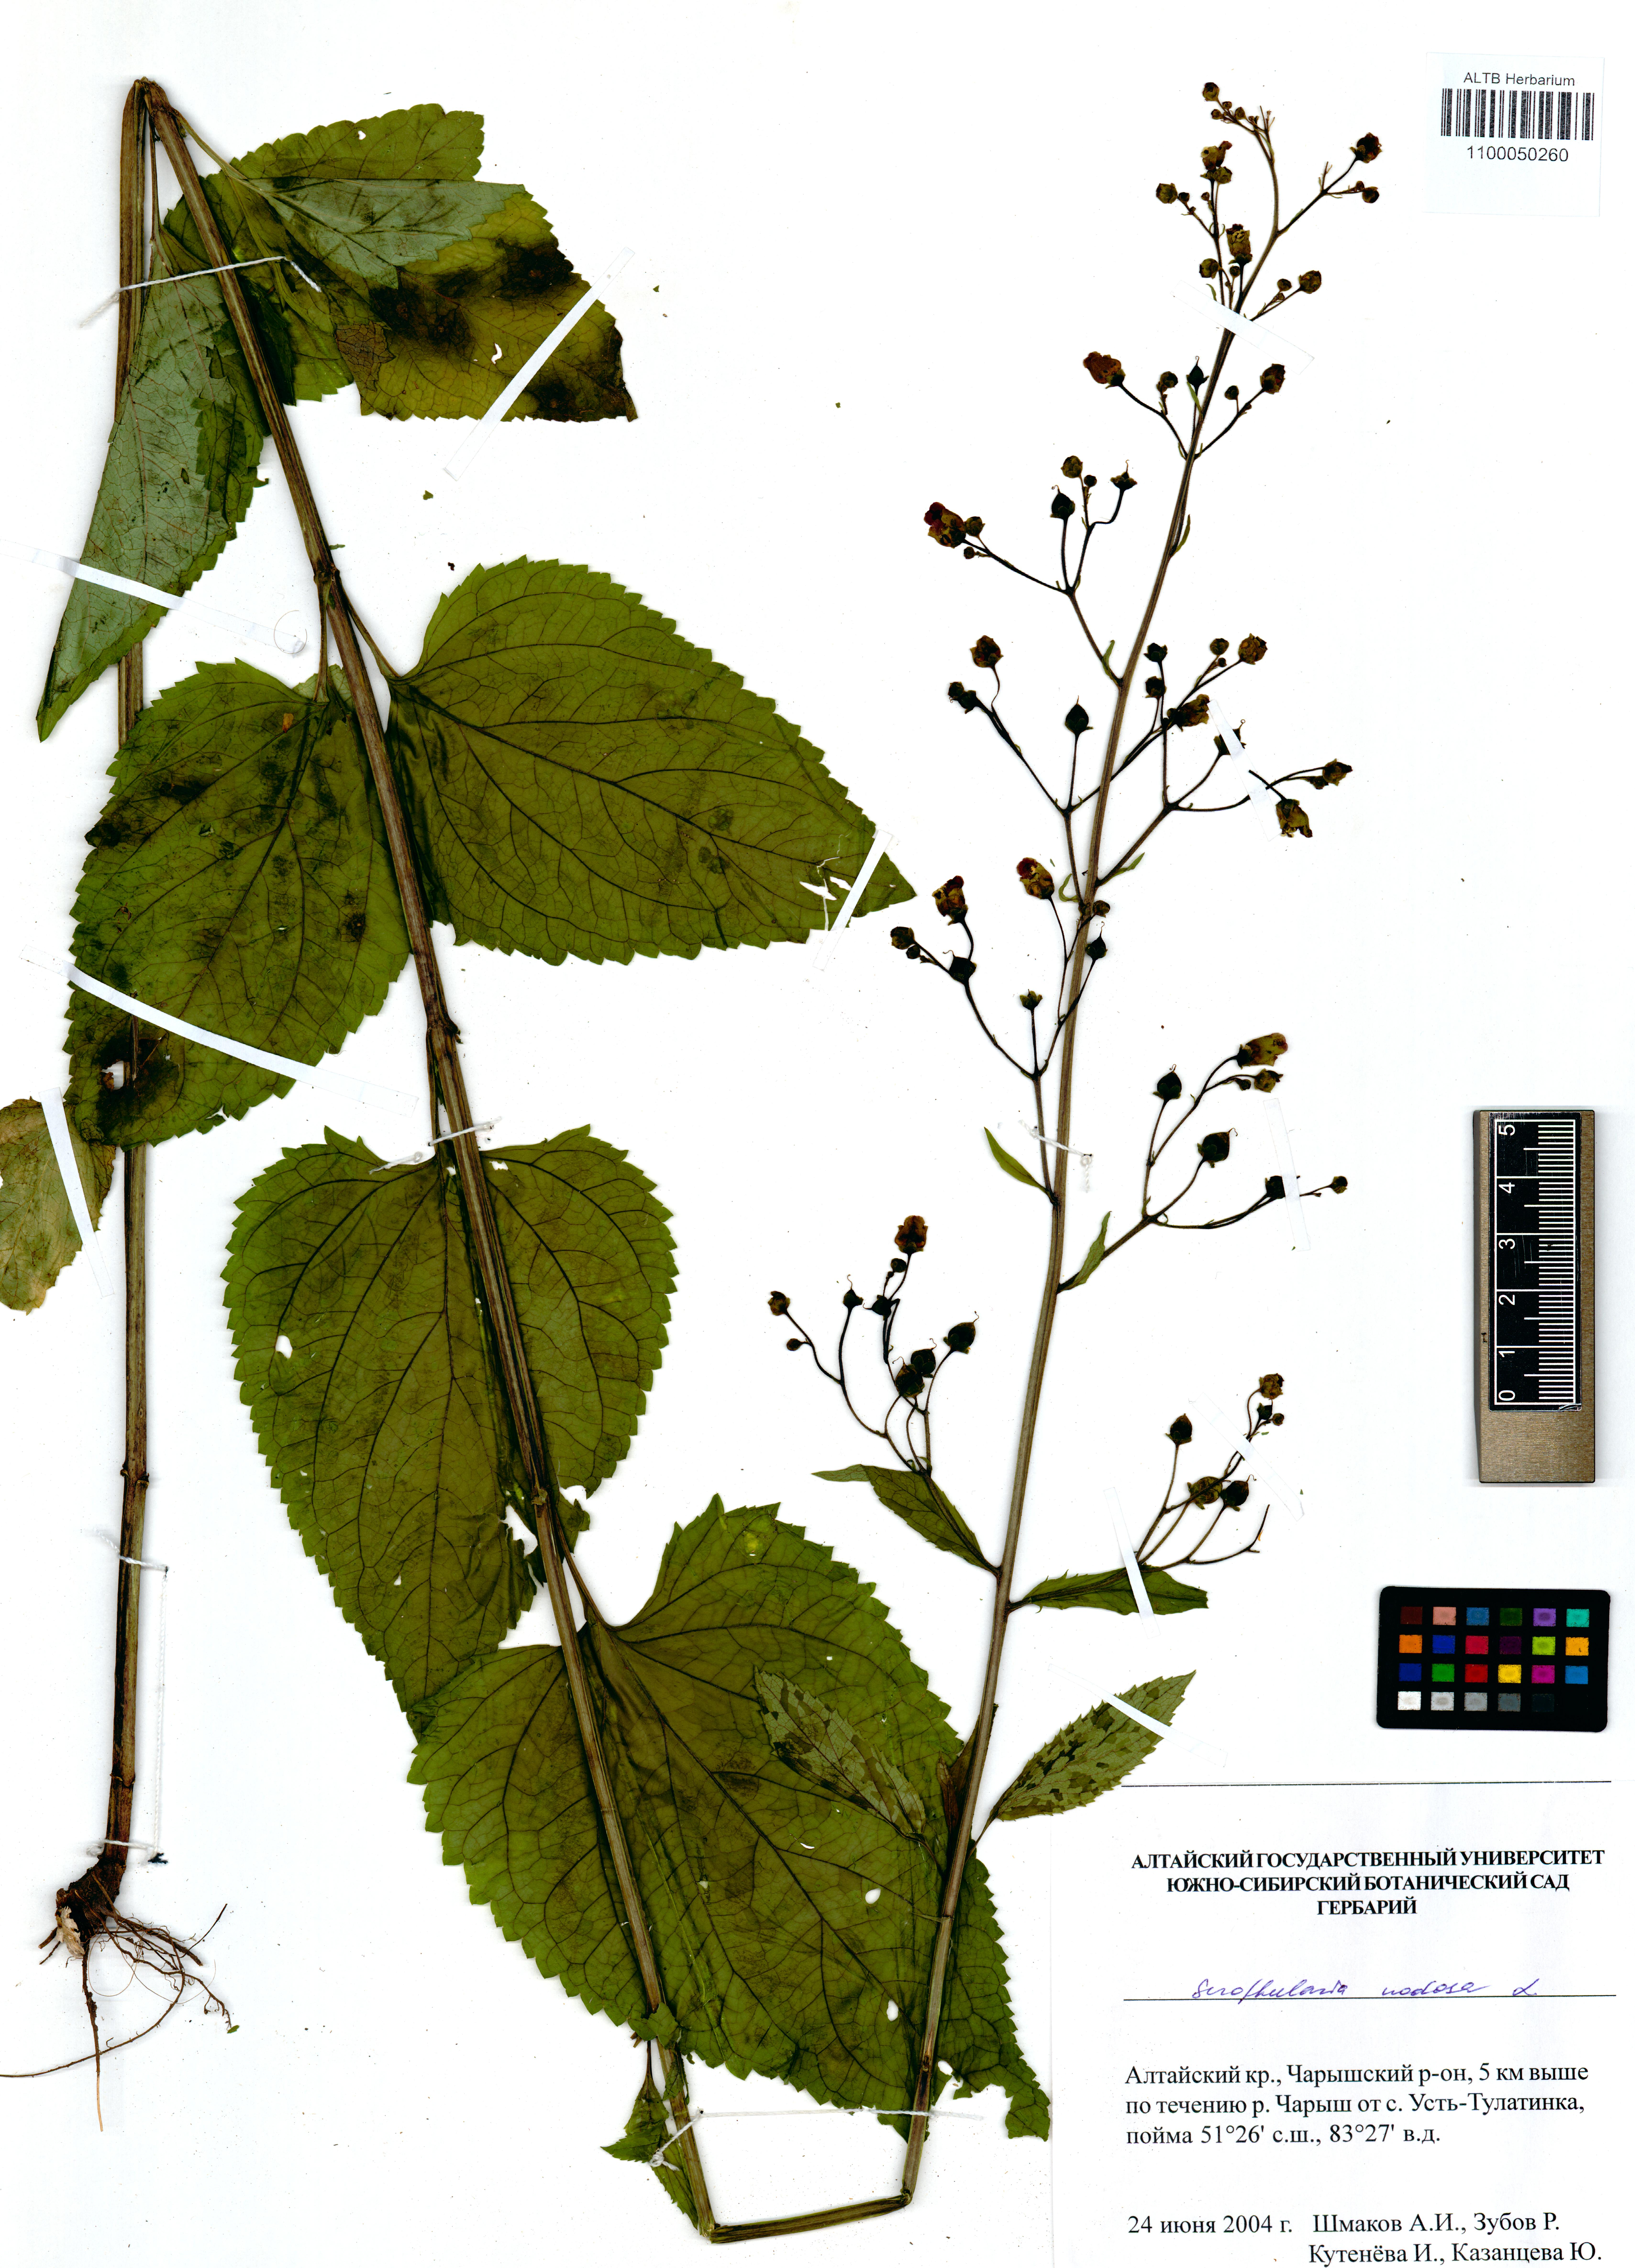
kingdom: Plantae
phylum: Tracheophyta
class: Magnoliopsida
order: Lamiales
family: Scrophulariaceae
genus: Scrophularia
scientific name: Scrophularia nodosa
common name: Common figwort
